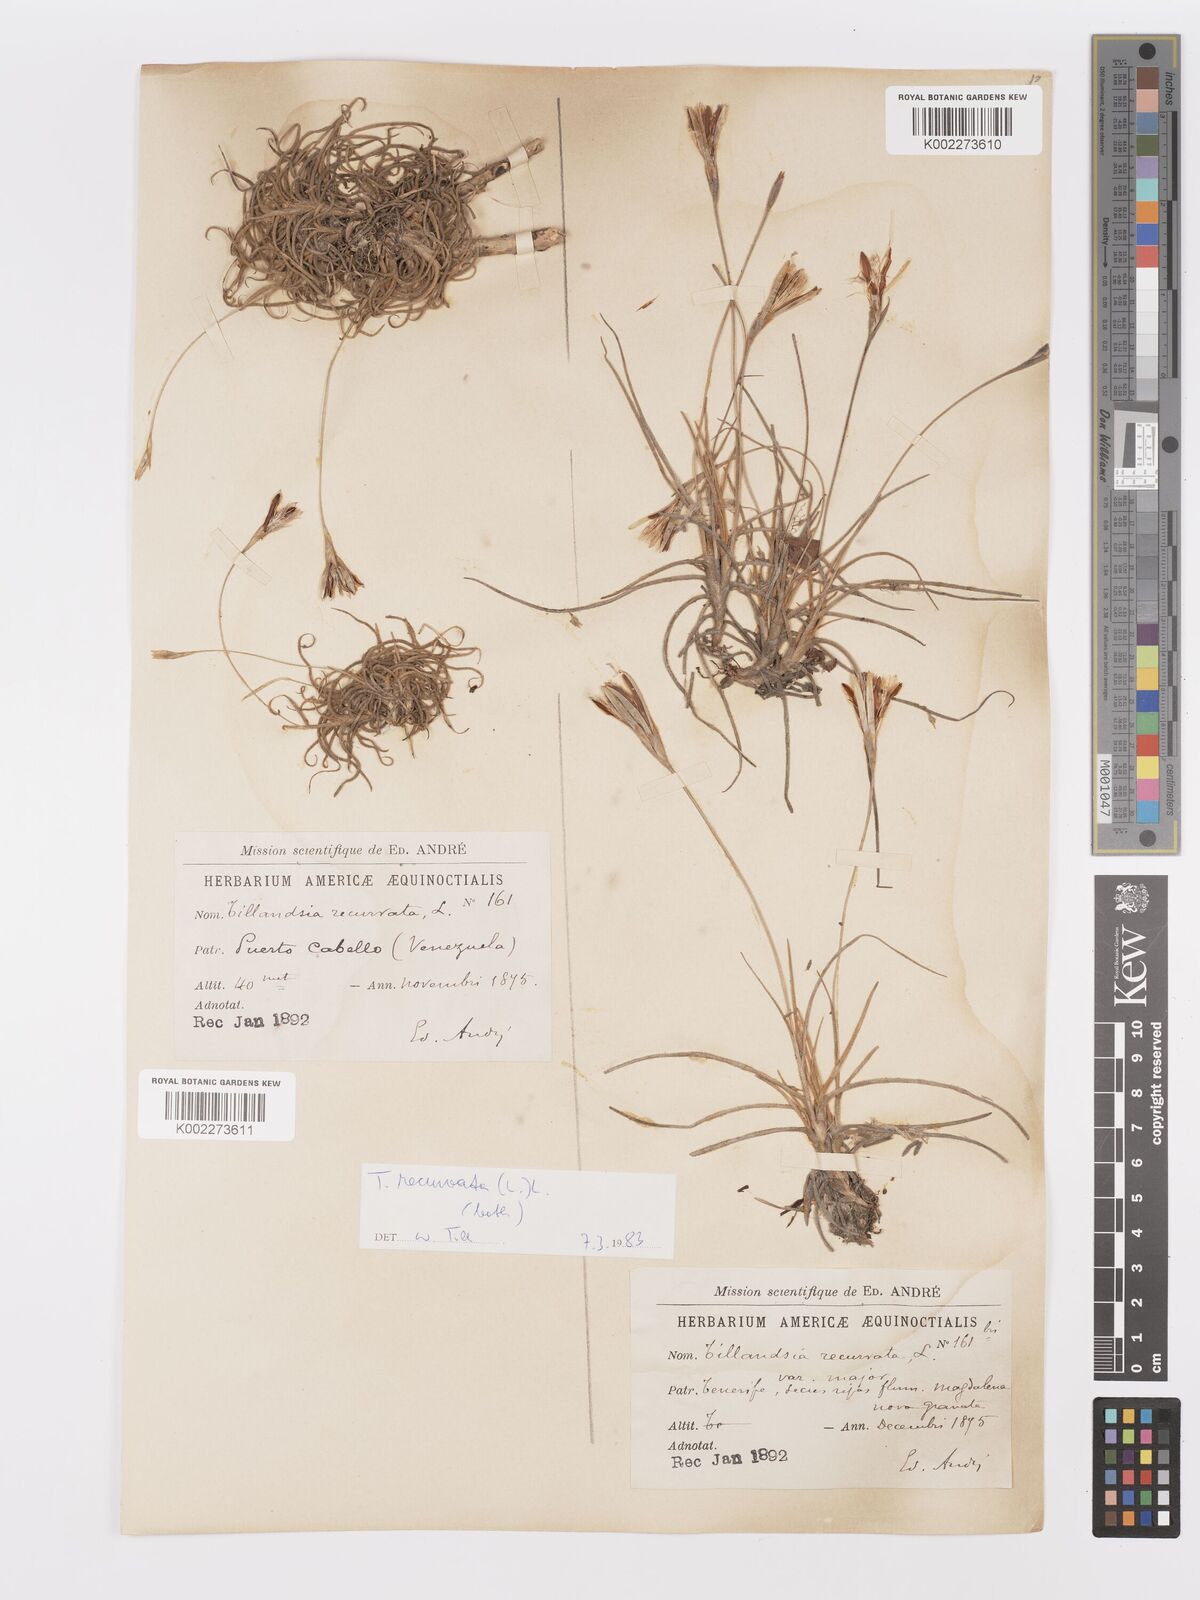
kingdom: Plantae
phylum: Tracheophyta
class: Liliopsida
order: Poales
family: Bromeliaceae
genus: Tillandsia
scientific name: Tillandsia recurvata
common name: Small ballmoss
